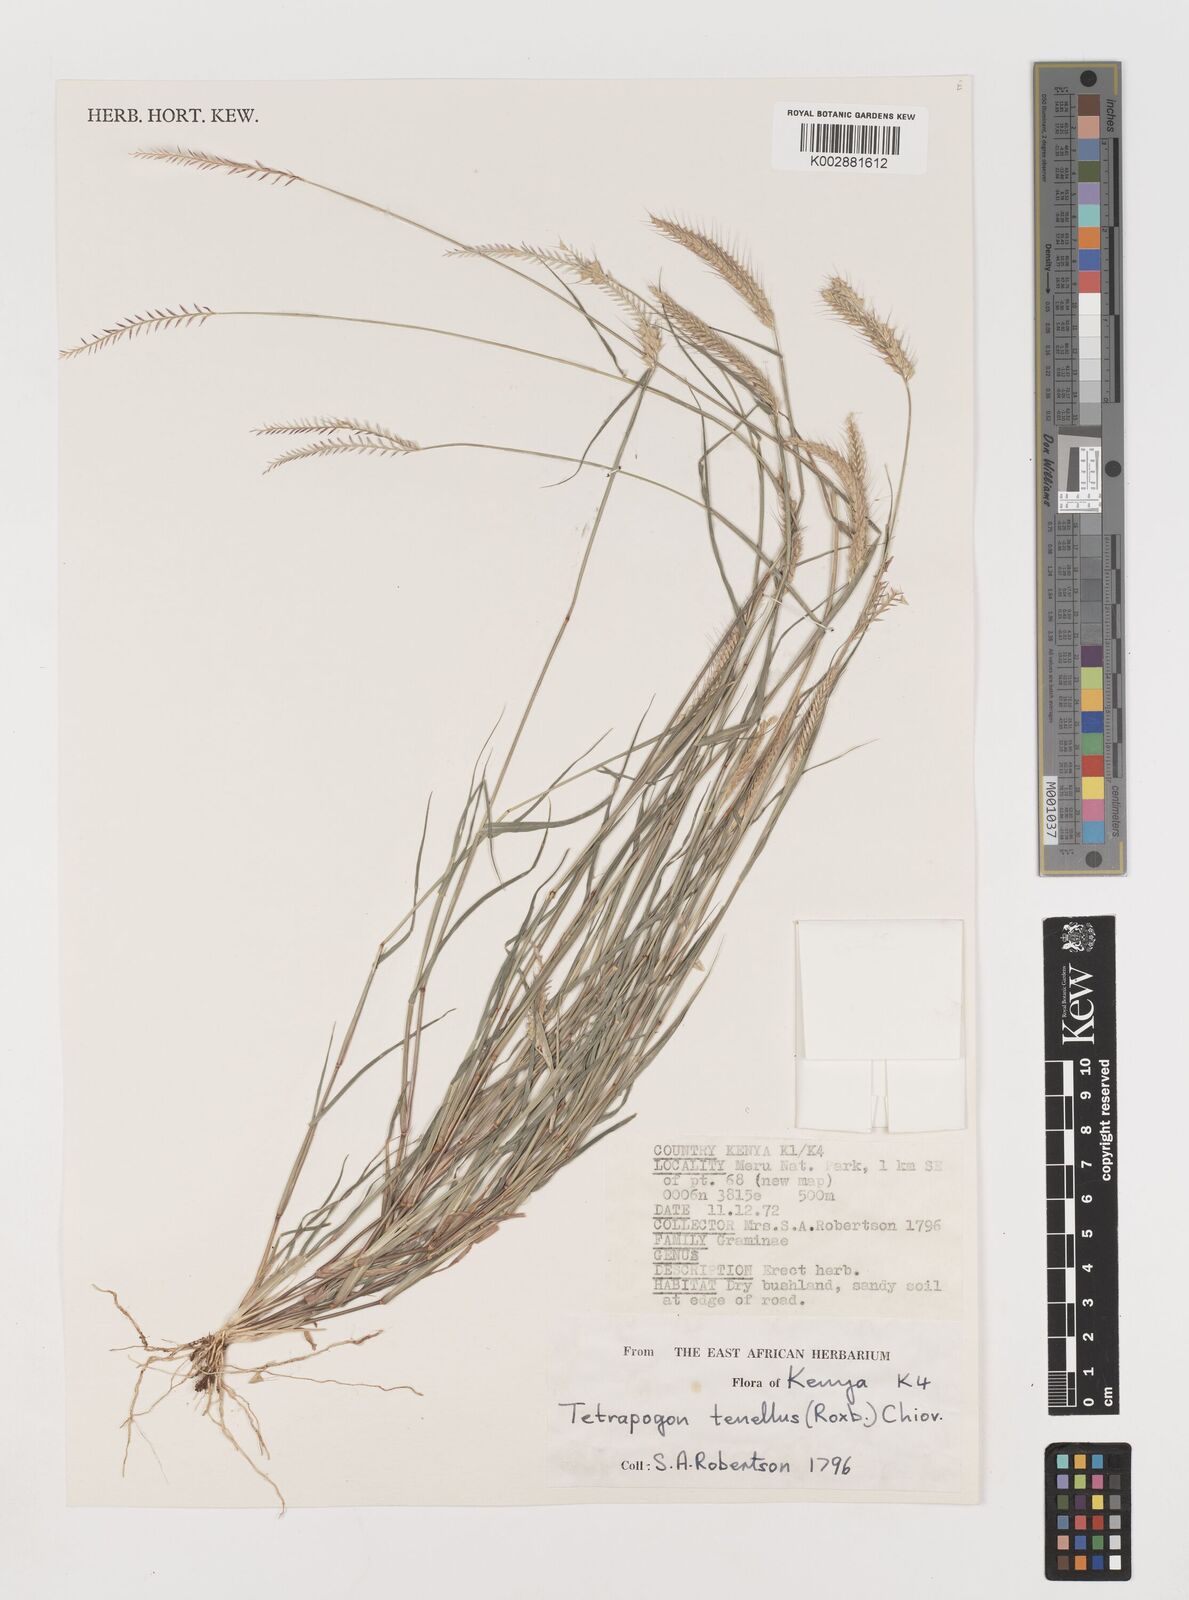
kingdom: Plantae
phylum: Tracheophyta
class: Liliopsida
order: Poales
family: Poaceae
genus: Tetrapogon
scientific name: Tetrapogon tenellus
